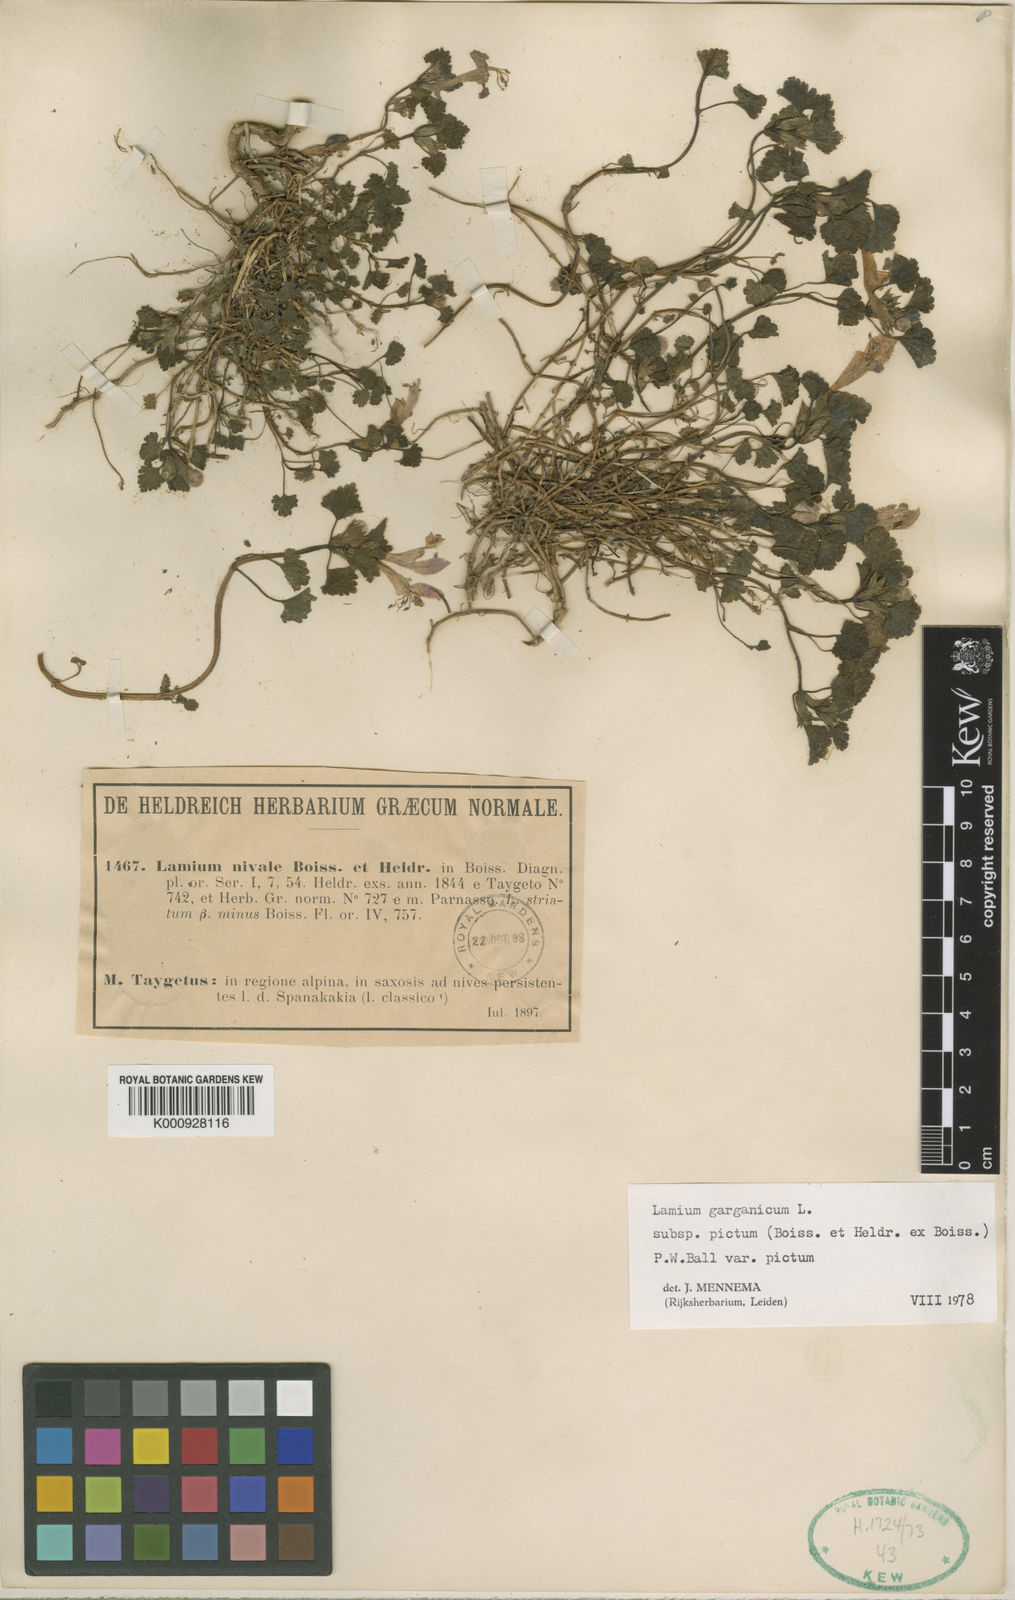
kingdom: Plantae
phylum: Tracheophyta
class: Magnoliopsida
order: Lamiales
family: Lamiaceae
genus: Lamium
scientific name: Lamium garganicum
